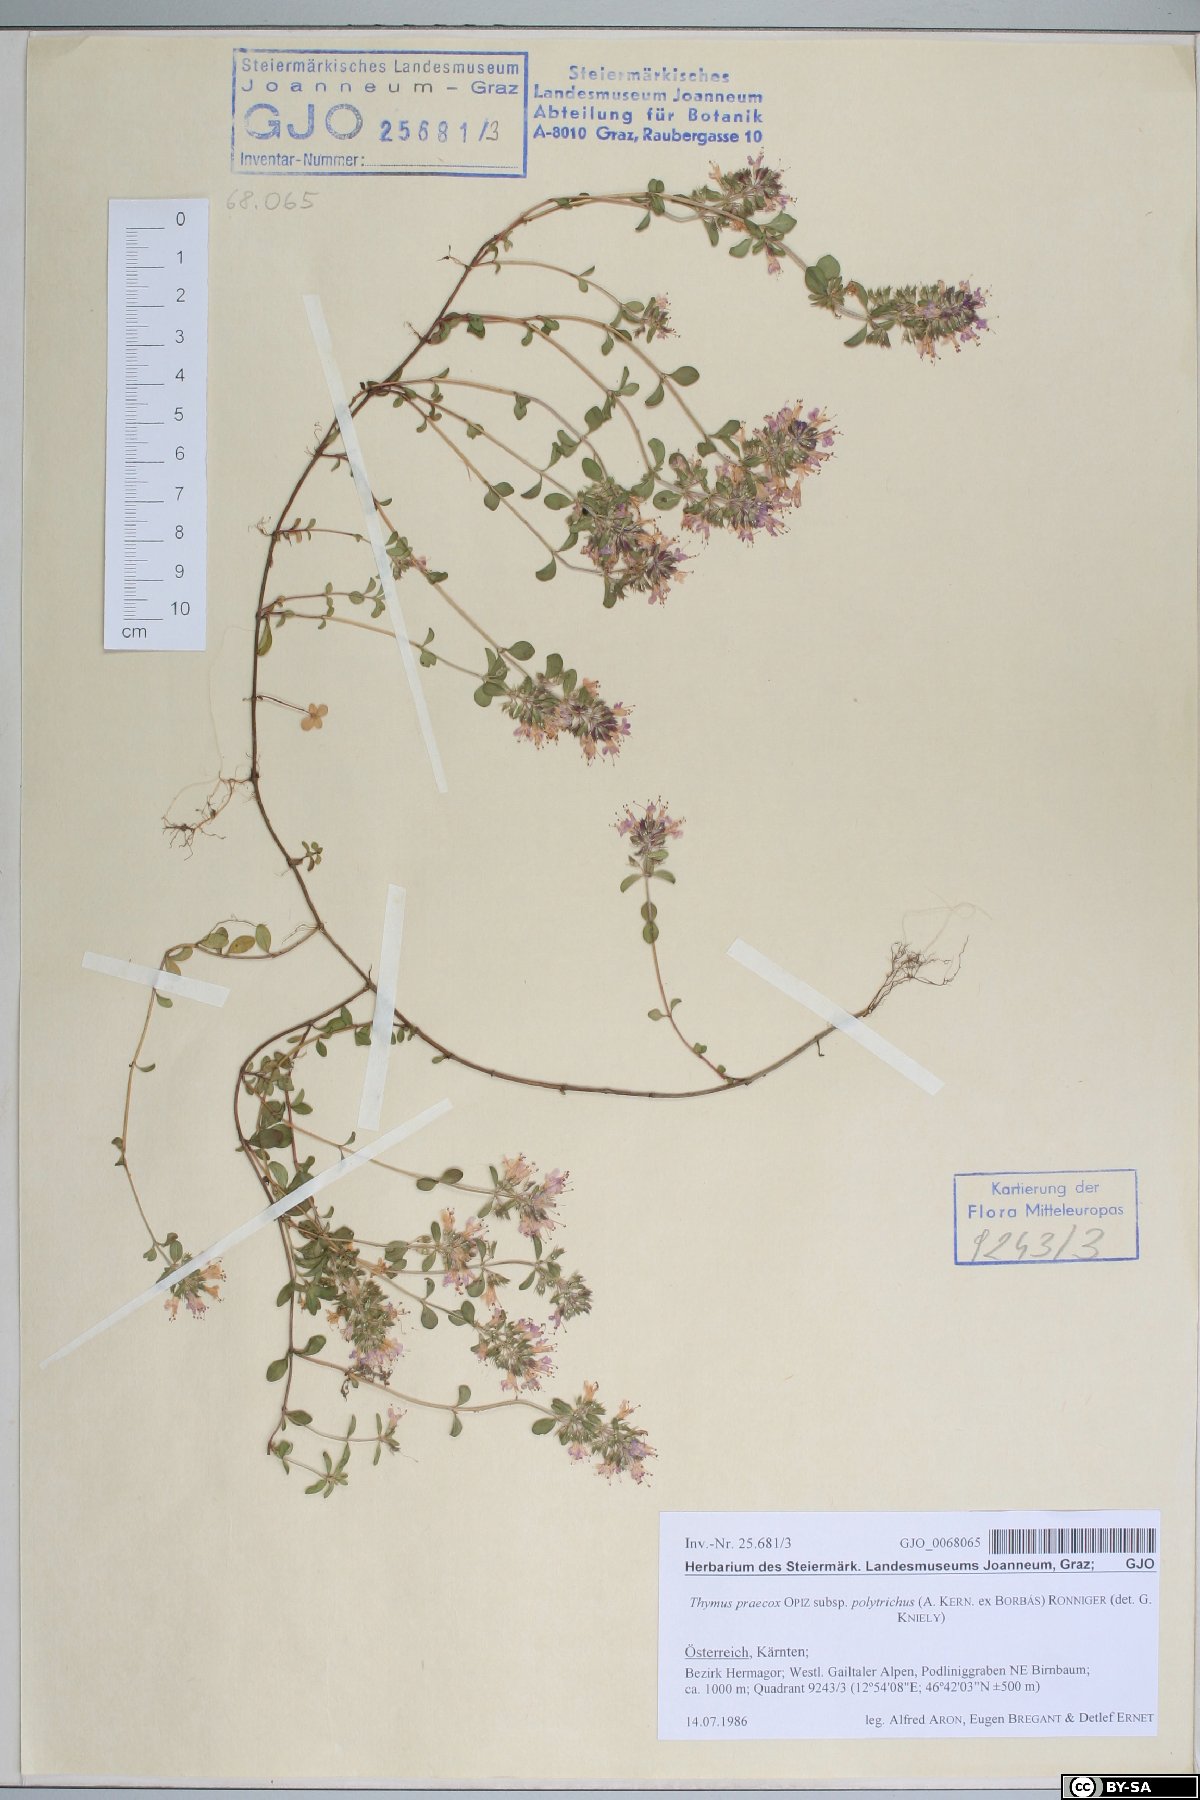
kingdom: Plantae
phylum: Tracheophyta
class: Magnoliopsida
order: Lamiales
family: Lamiaceae
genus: Thymus
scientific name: Thymus praecox
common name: Wild thyme
